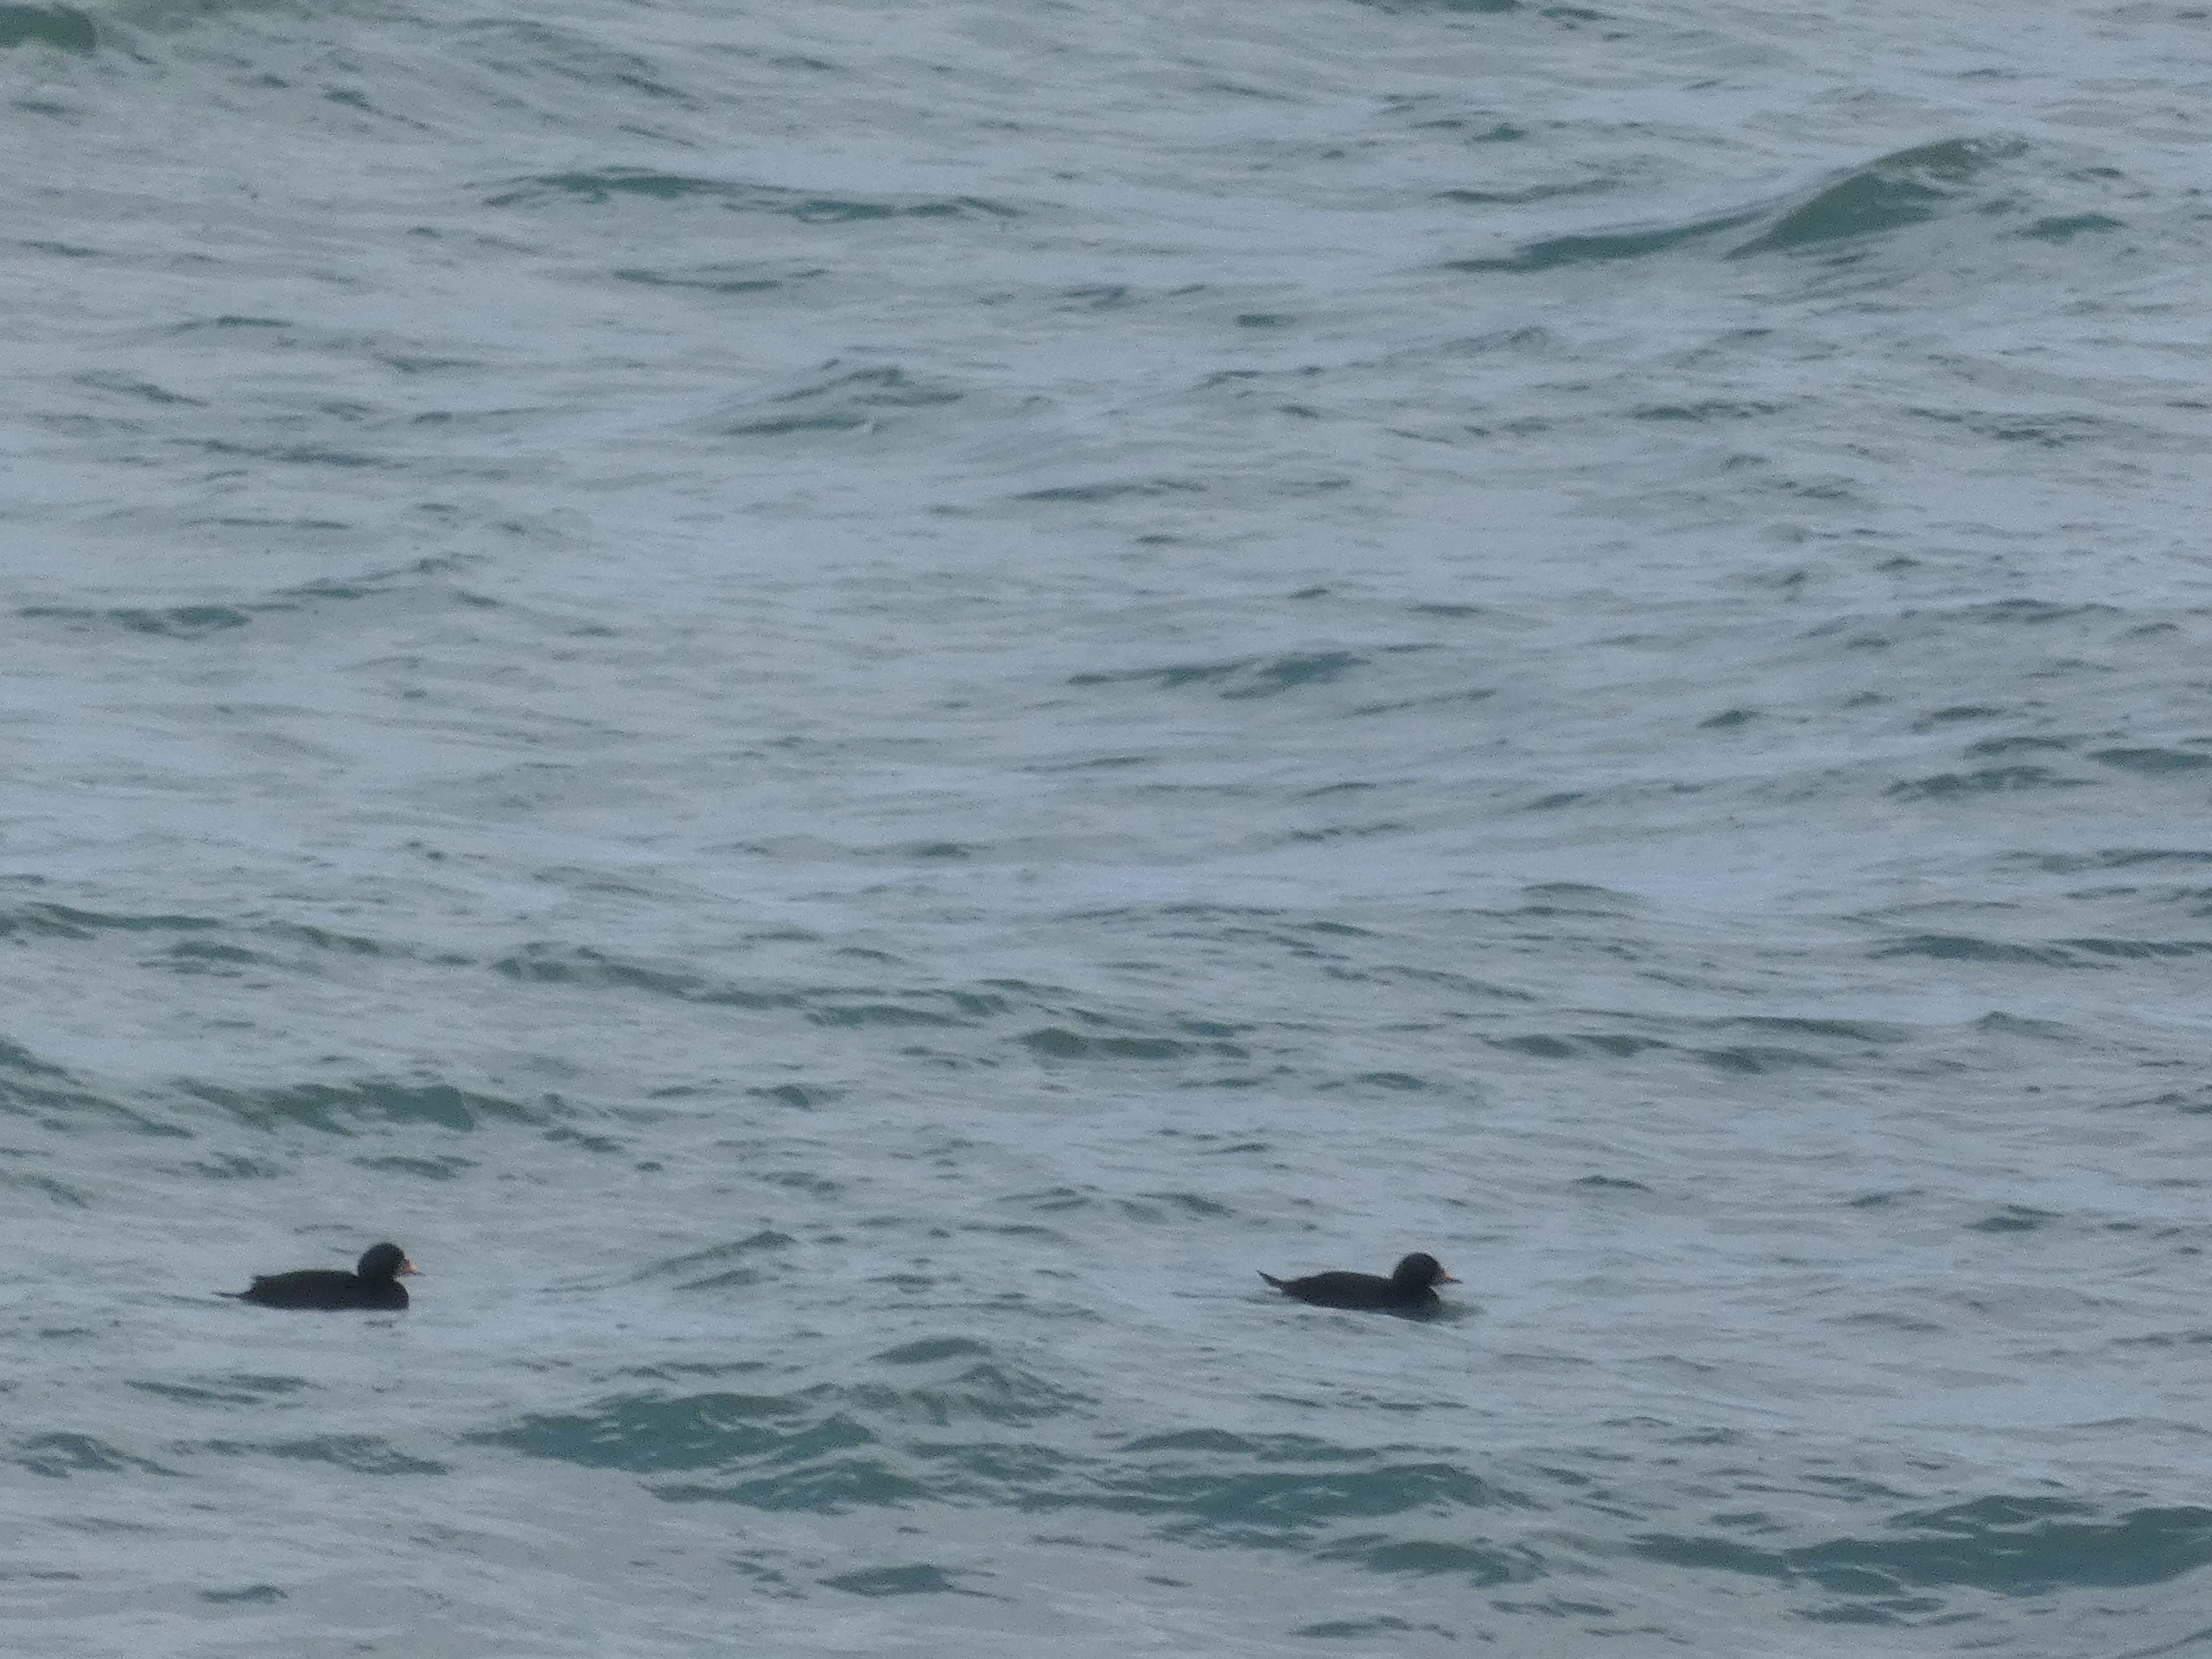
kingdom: Animalia
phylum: Chordata
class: Aves
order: Anseriformes
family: Anatidae
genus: Melanitta
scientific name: Melanitta nigra
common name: Sortand
